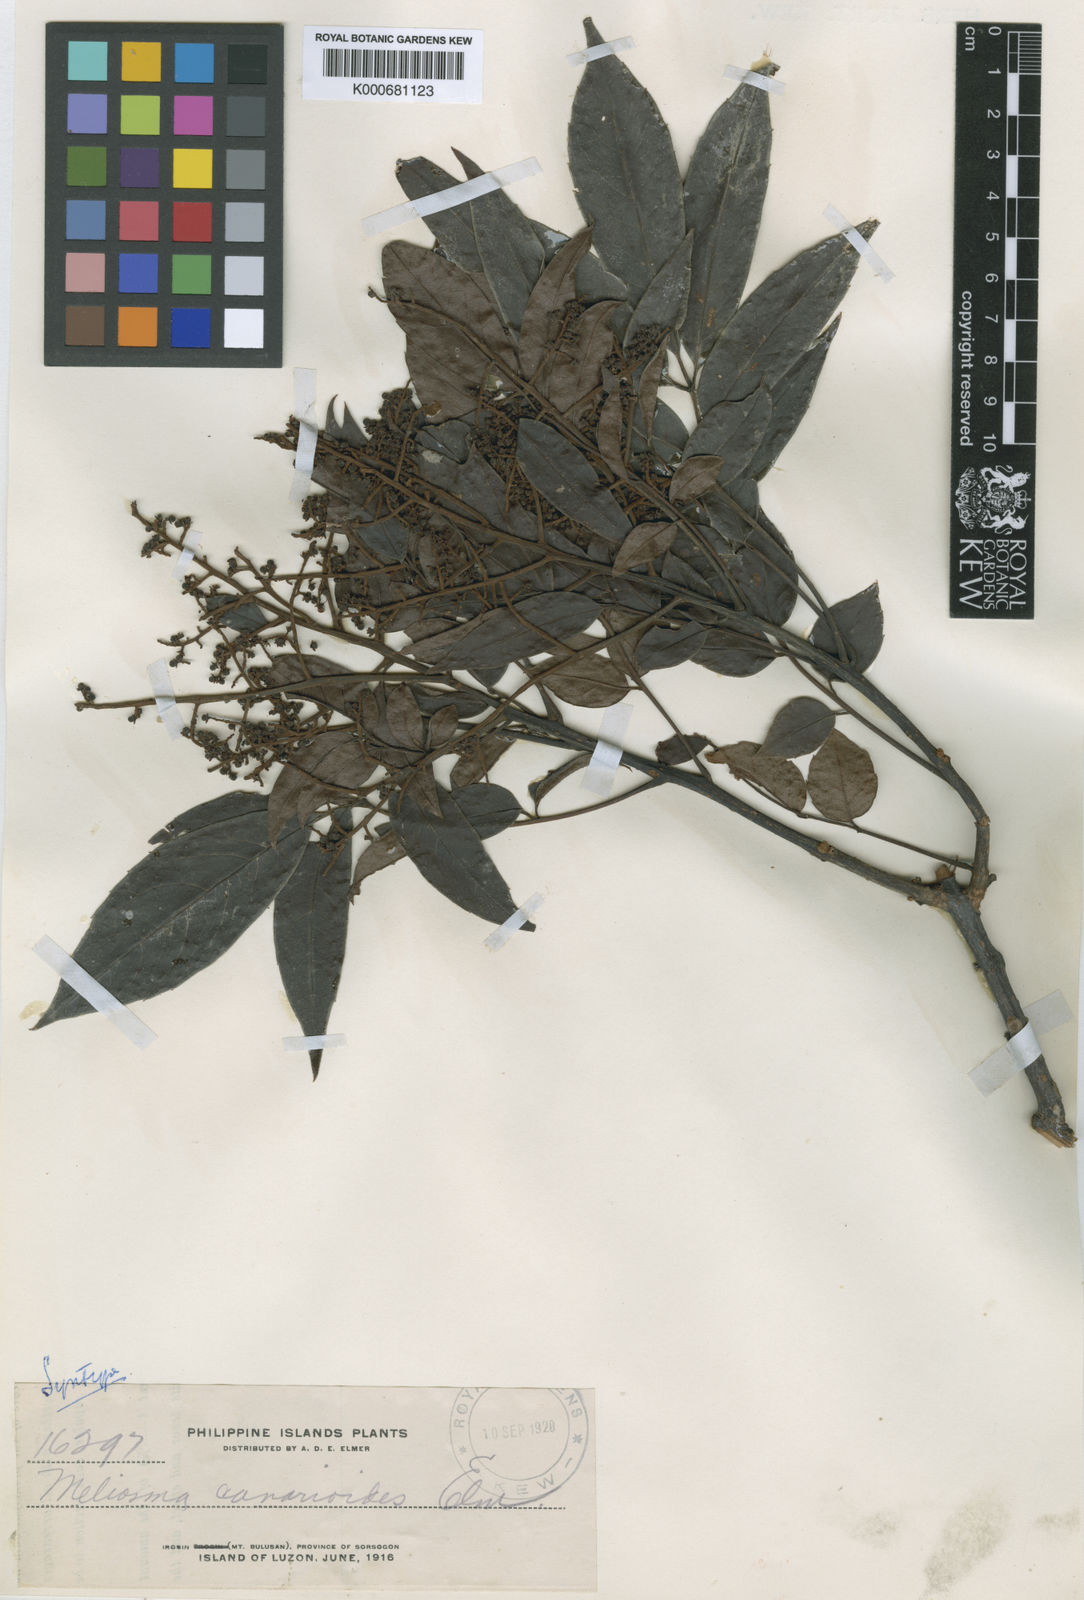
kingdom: Plantae
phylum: Tracheophyta
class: Magnoliopsida
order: Proteales
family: Sabiaceae
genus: Meliosma
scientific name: Meliosma pinnata
